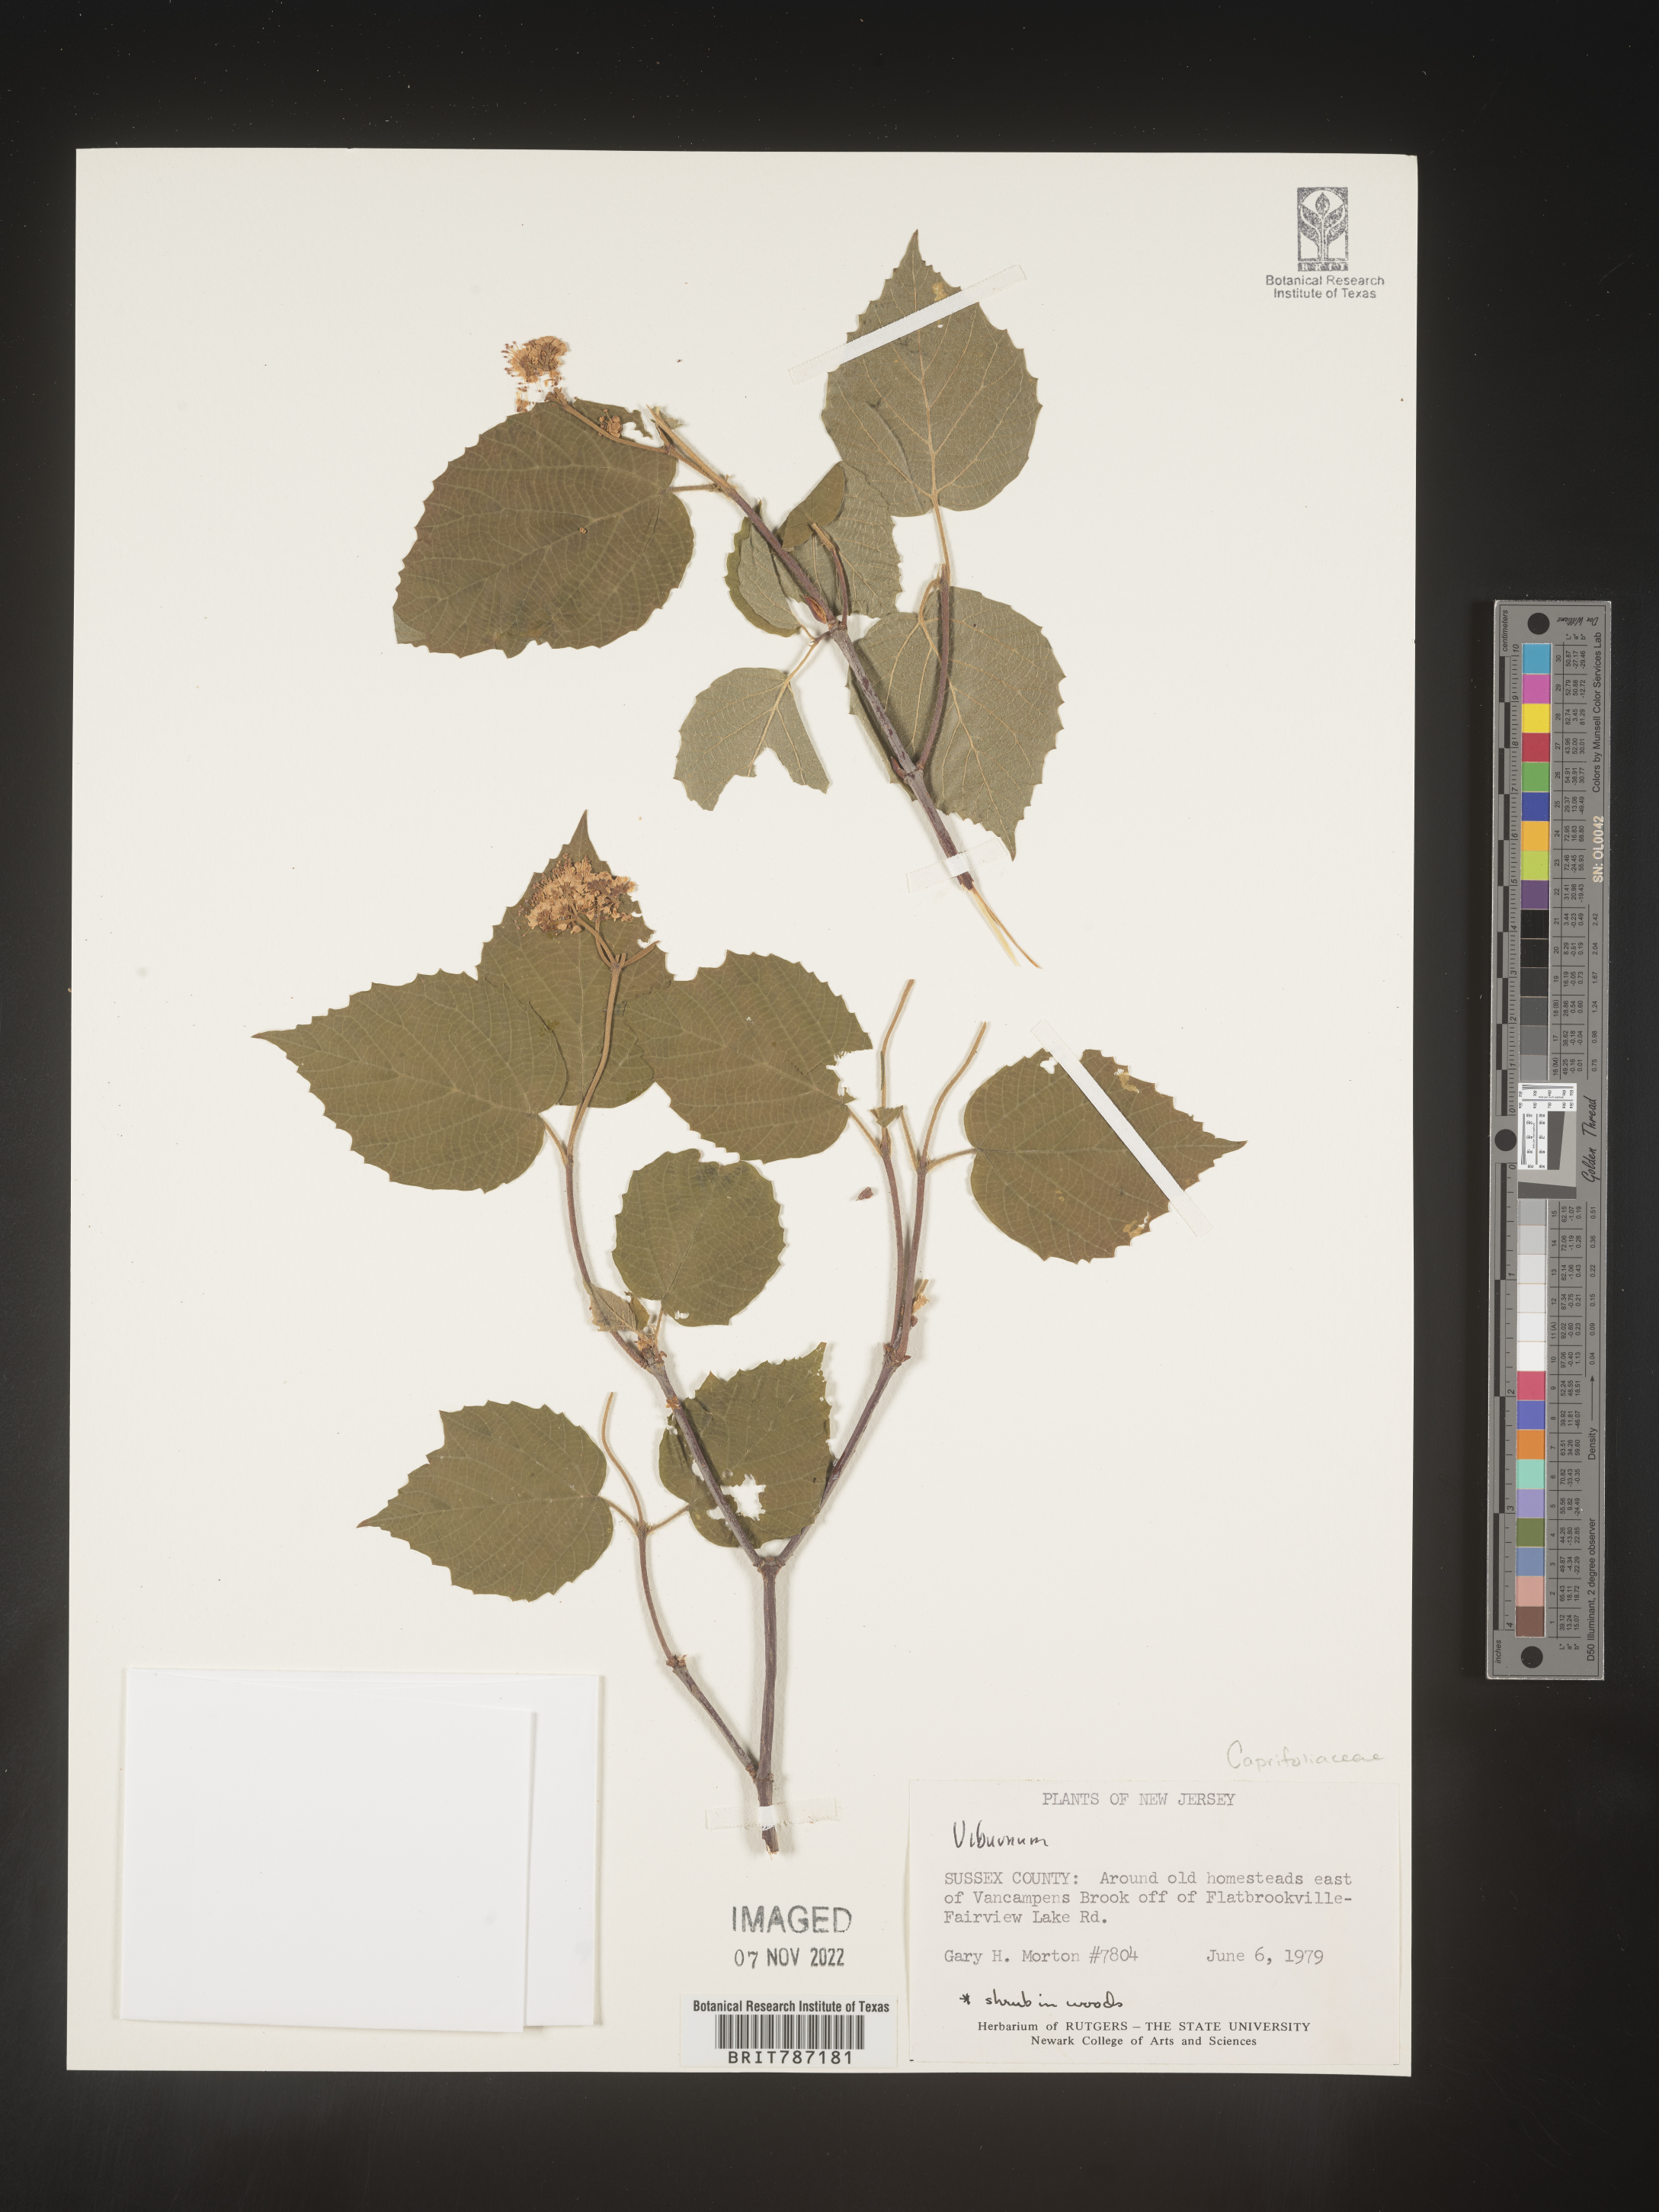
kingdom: Plantae
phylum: Tracheophyta
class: Magnoliopsida
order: Dipsacales
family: Viburnaceae
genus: Viburnum
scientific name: Viburnum
